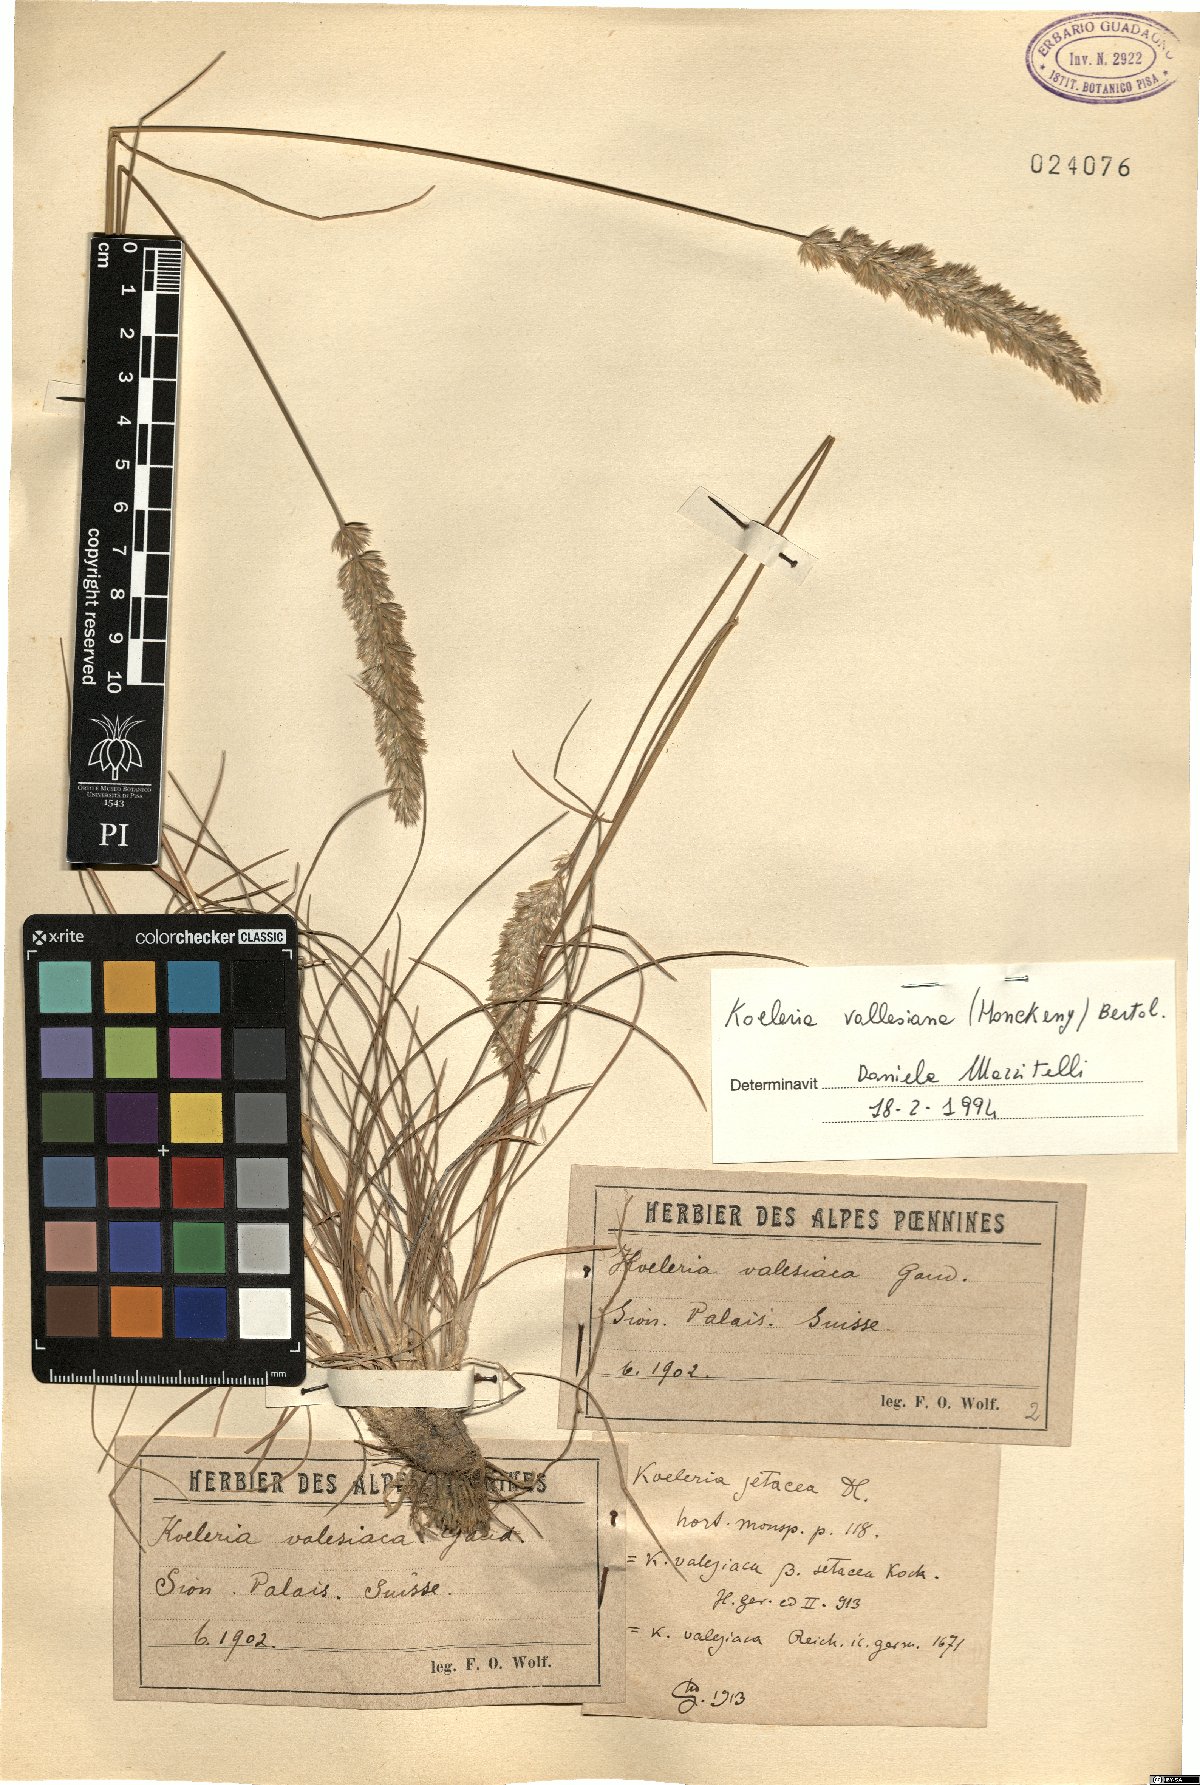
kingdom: Plantae
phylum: Tracheophyta
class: Liliopsida
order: Poales
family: Poaceae
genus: Koeleria
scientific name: Koeleria vallesiana
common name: Somerset hair-grass
